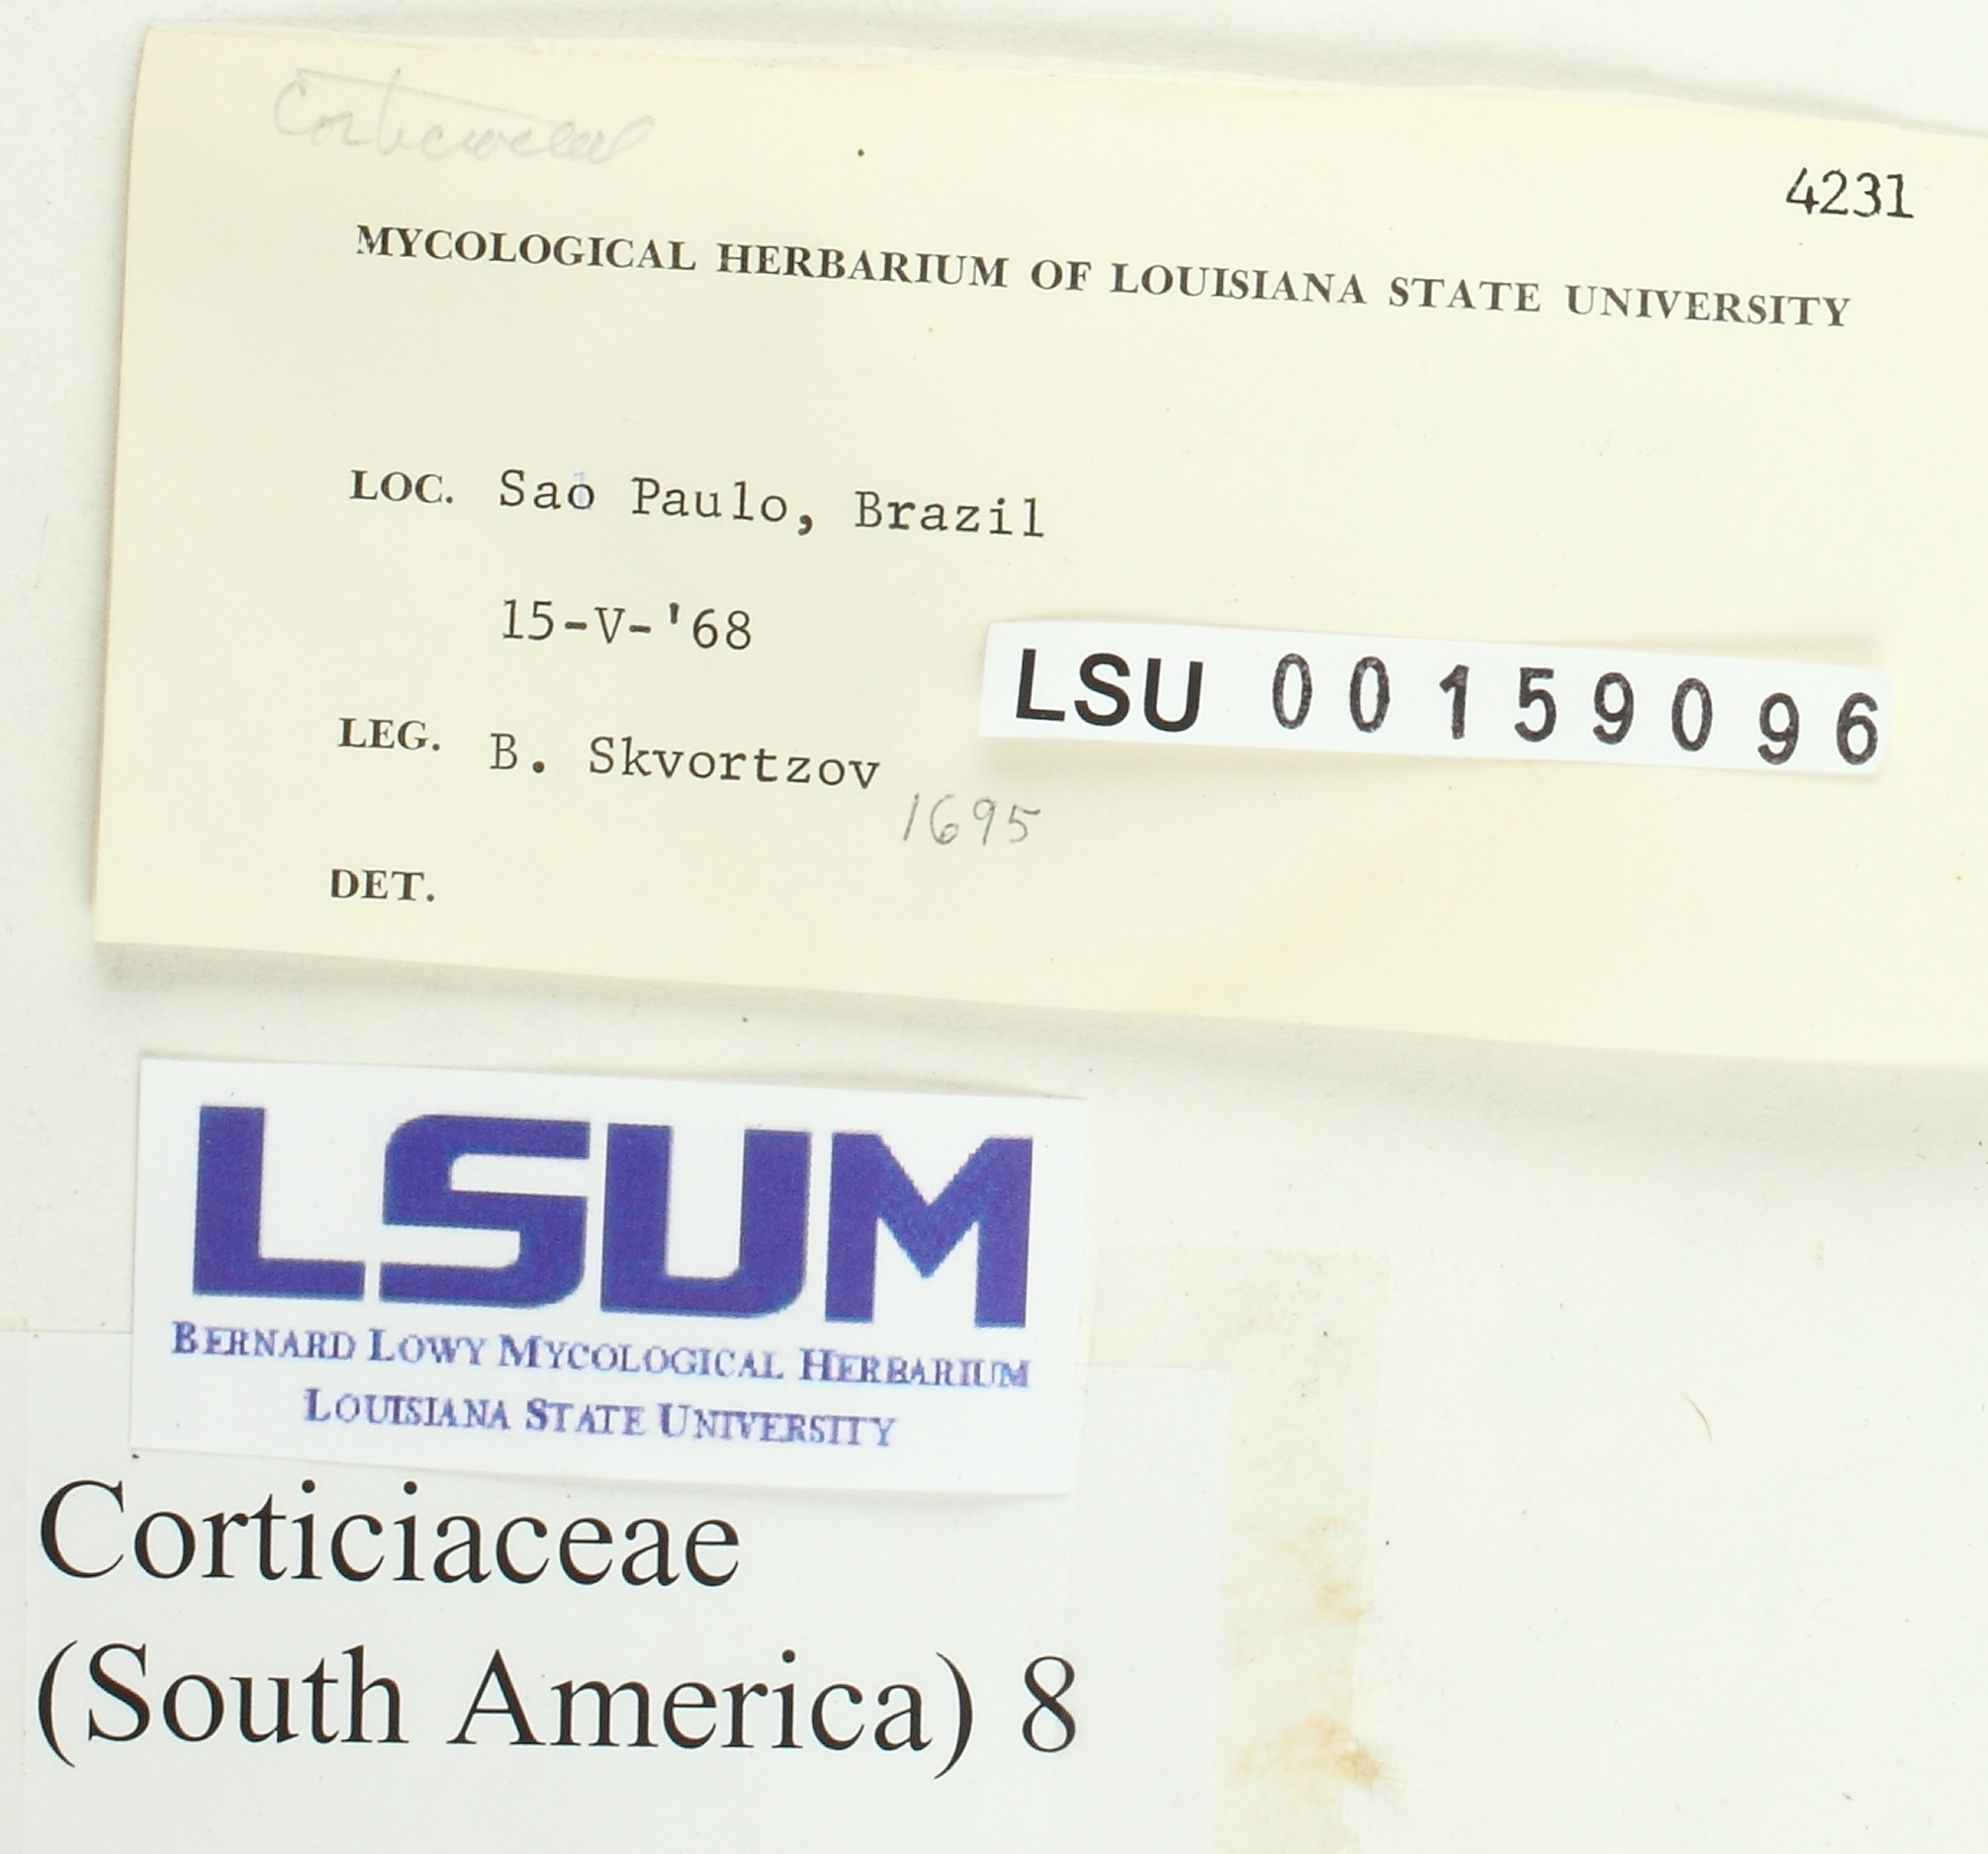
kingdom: Fungi
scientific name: Fungi
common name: Fungi
